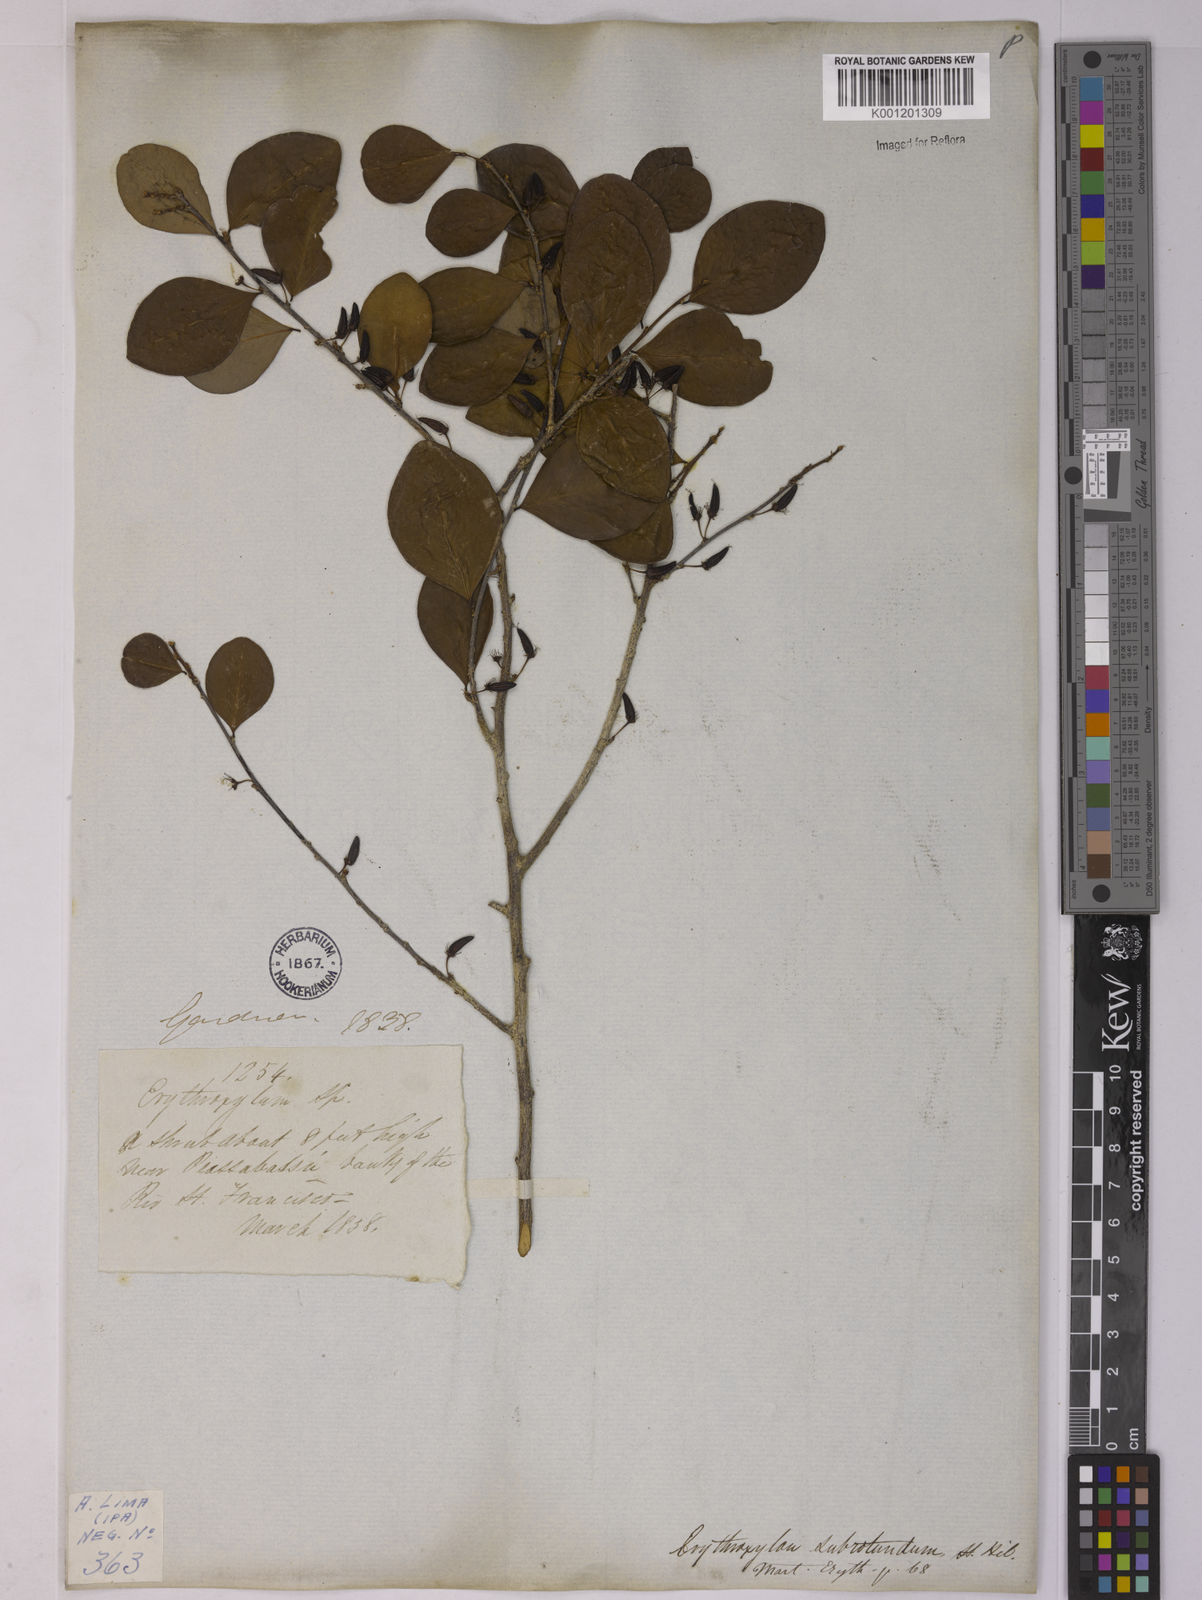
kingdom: Plantae
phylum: Tracheophyta
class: Magnoliopsida
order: Malpighiales
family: Erythroxylaceae
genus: Erythroxylum
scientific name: Erythroxylum subrotundum
